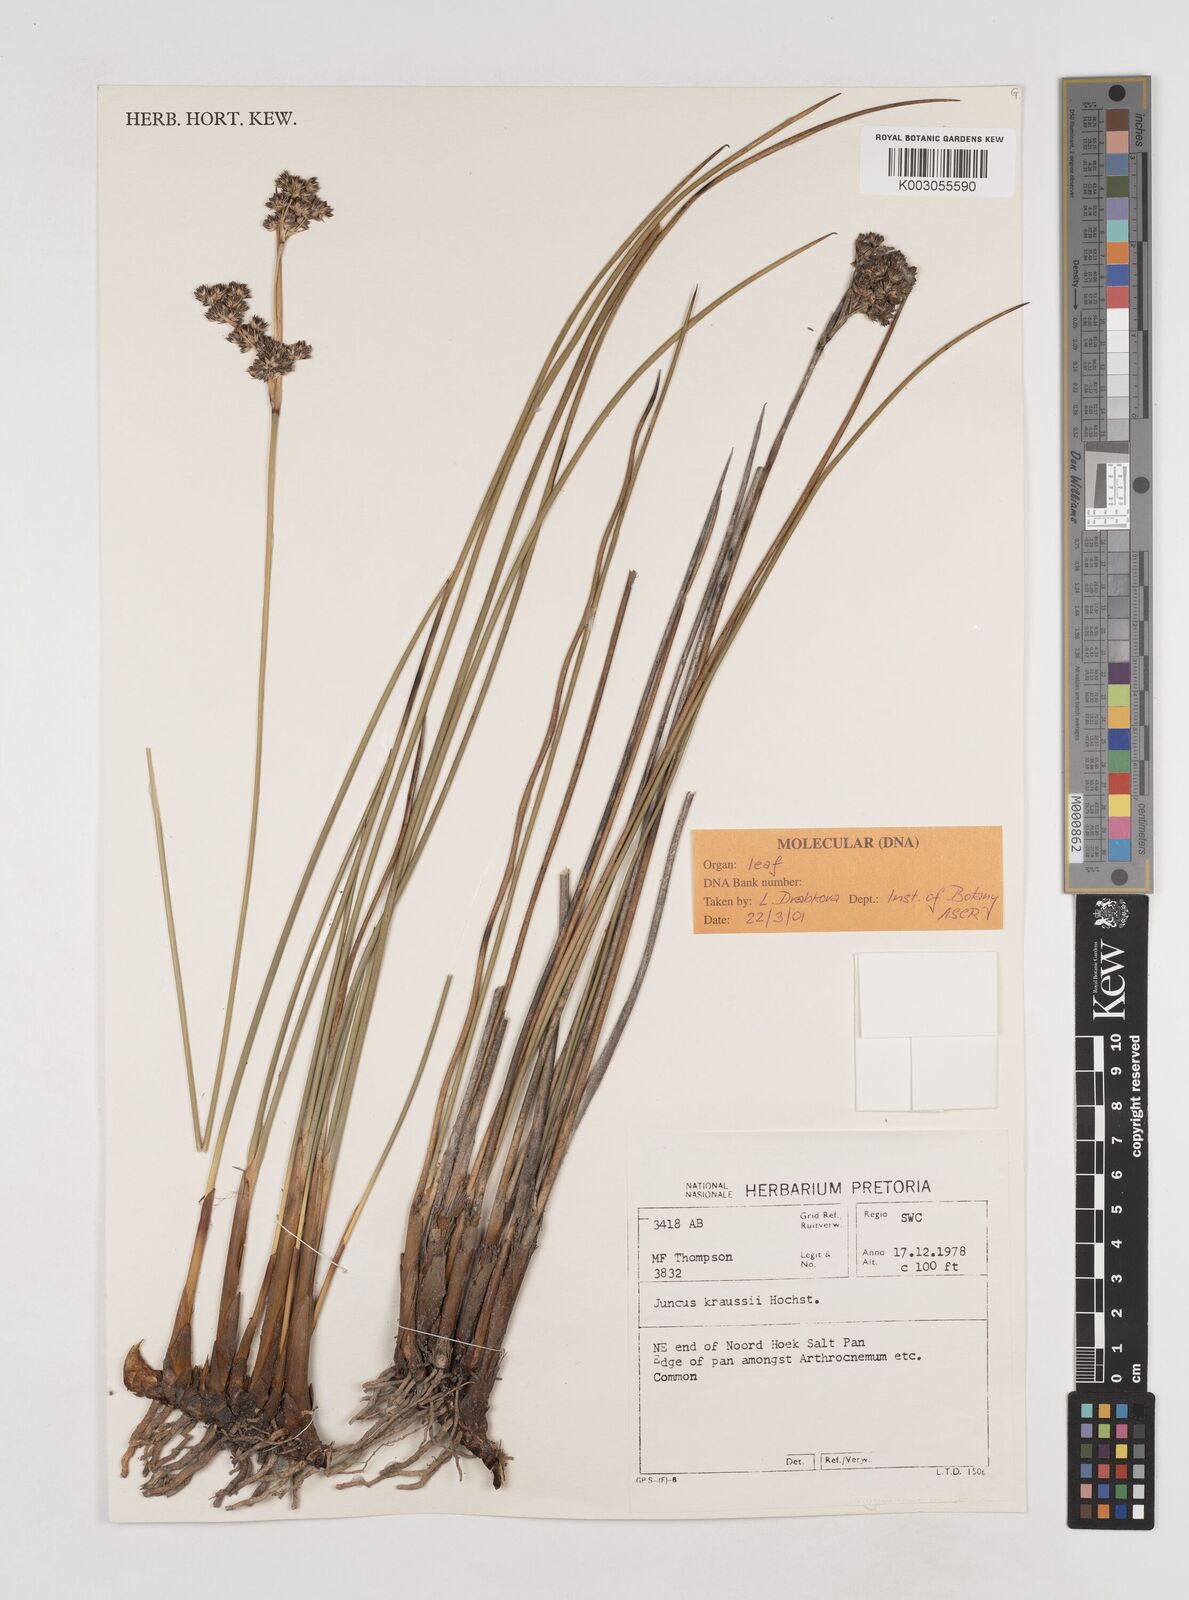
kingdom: Plantae
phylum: Tracheophyta
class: Liliopsida
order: Poales
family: Juncaceae
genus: Juncus
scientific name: Juncus kraussii
